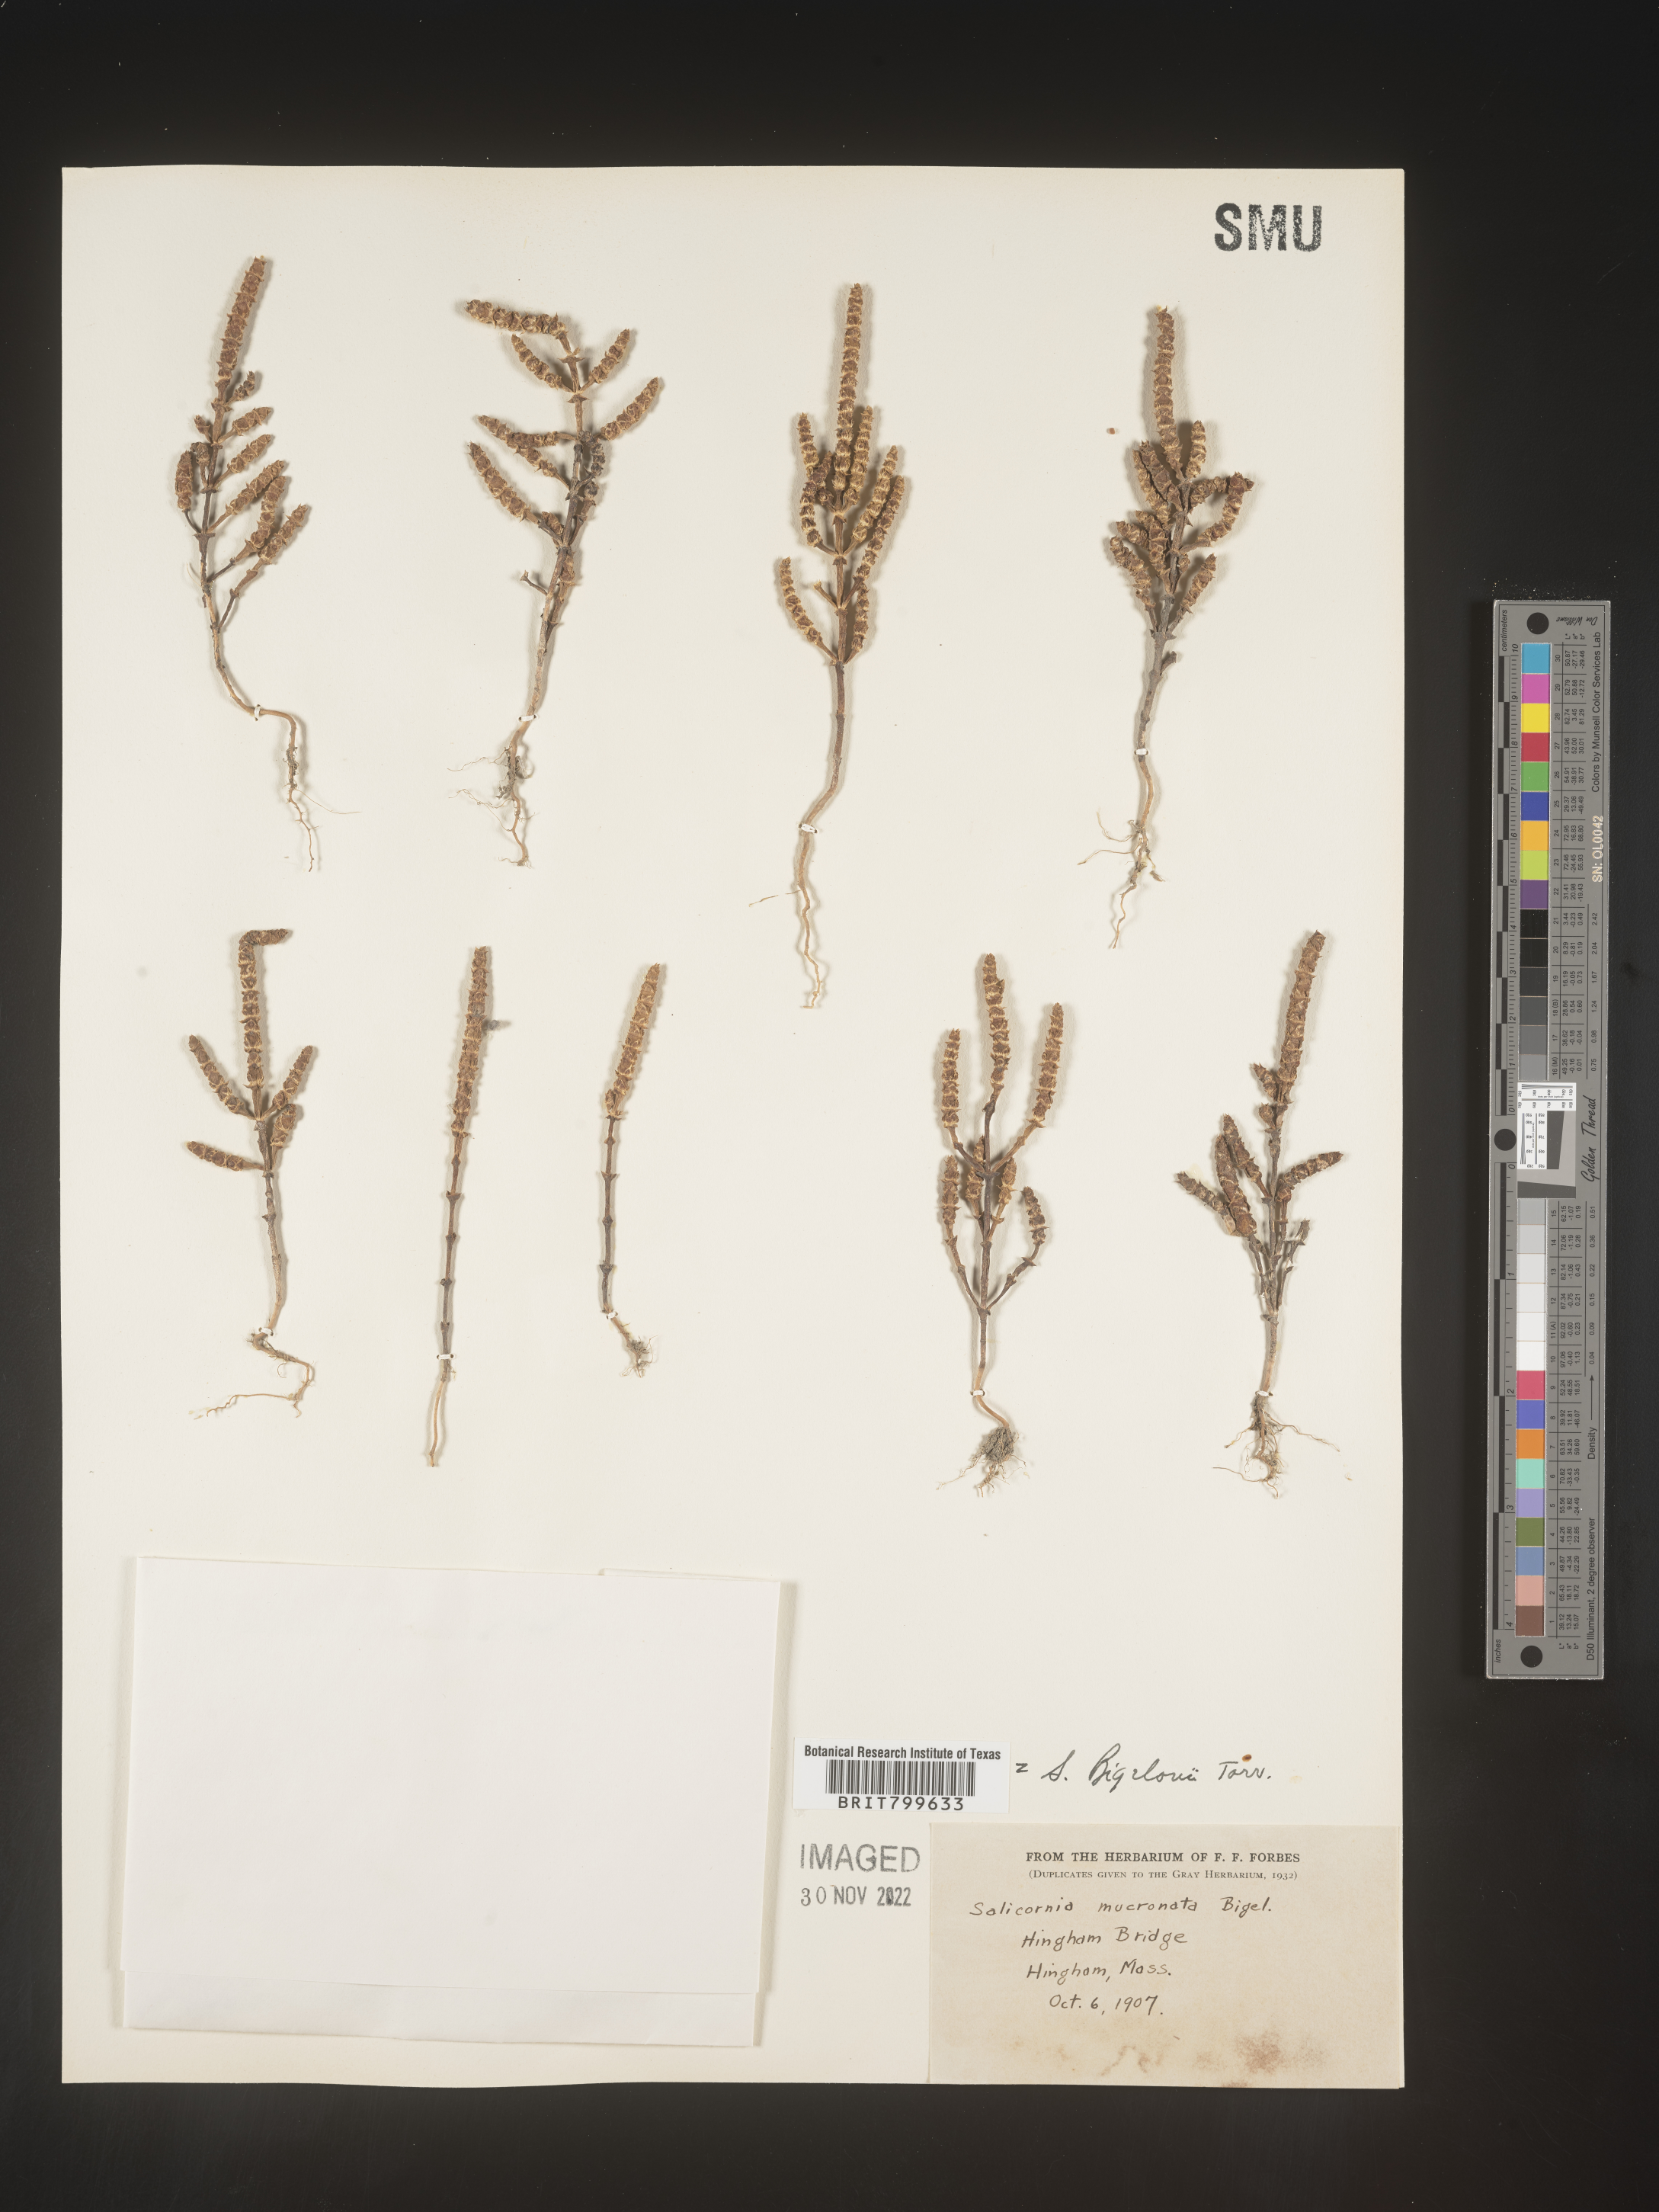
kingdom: Plantae
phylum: Tracheophyta
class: Magnoliopsida
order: Caryophyllales
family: Amaranthaceae
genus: Salicornia
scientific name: Salicornia bigelovii
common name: Dwarf glasswort
